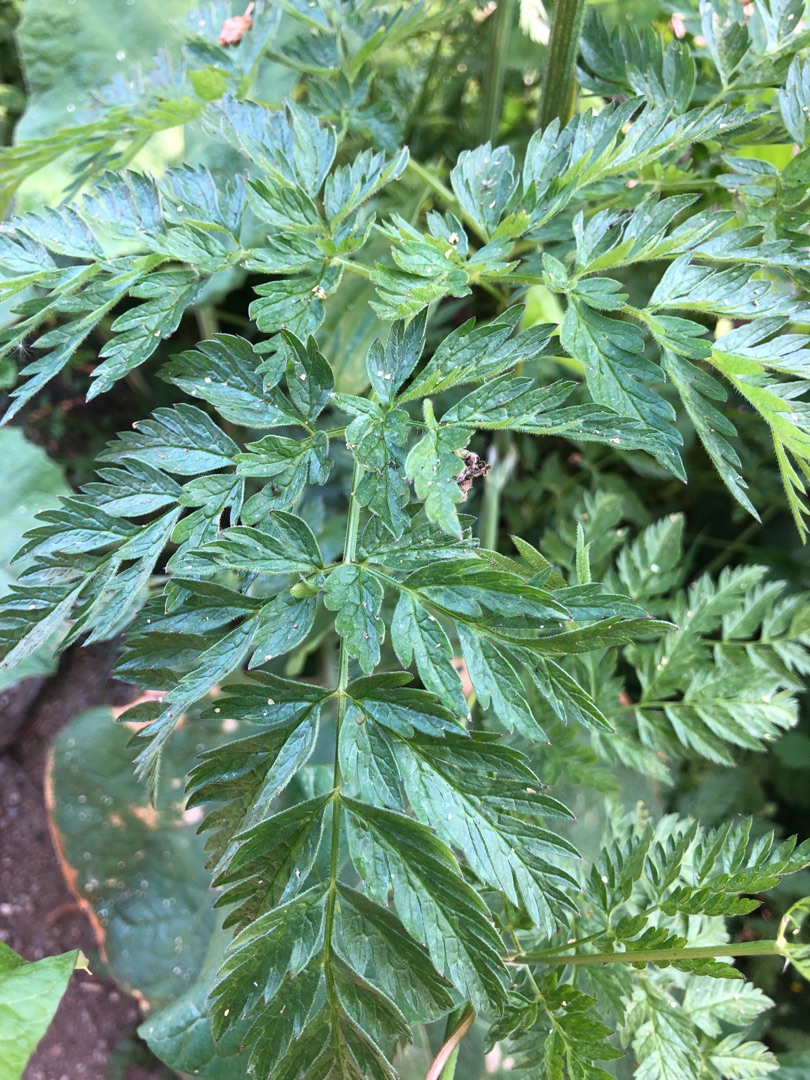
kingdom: Plantae
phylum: Tracheophyta
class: Magnoliopsida
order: Apiales
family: Apiaceae
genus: Anthriscus
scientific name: Anthriscus sylvestris
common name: Vild kørvel
